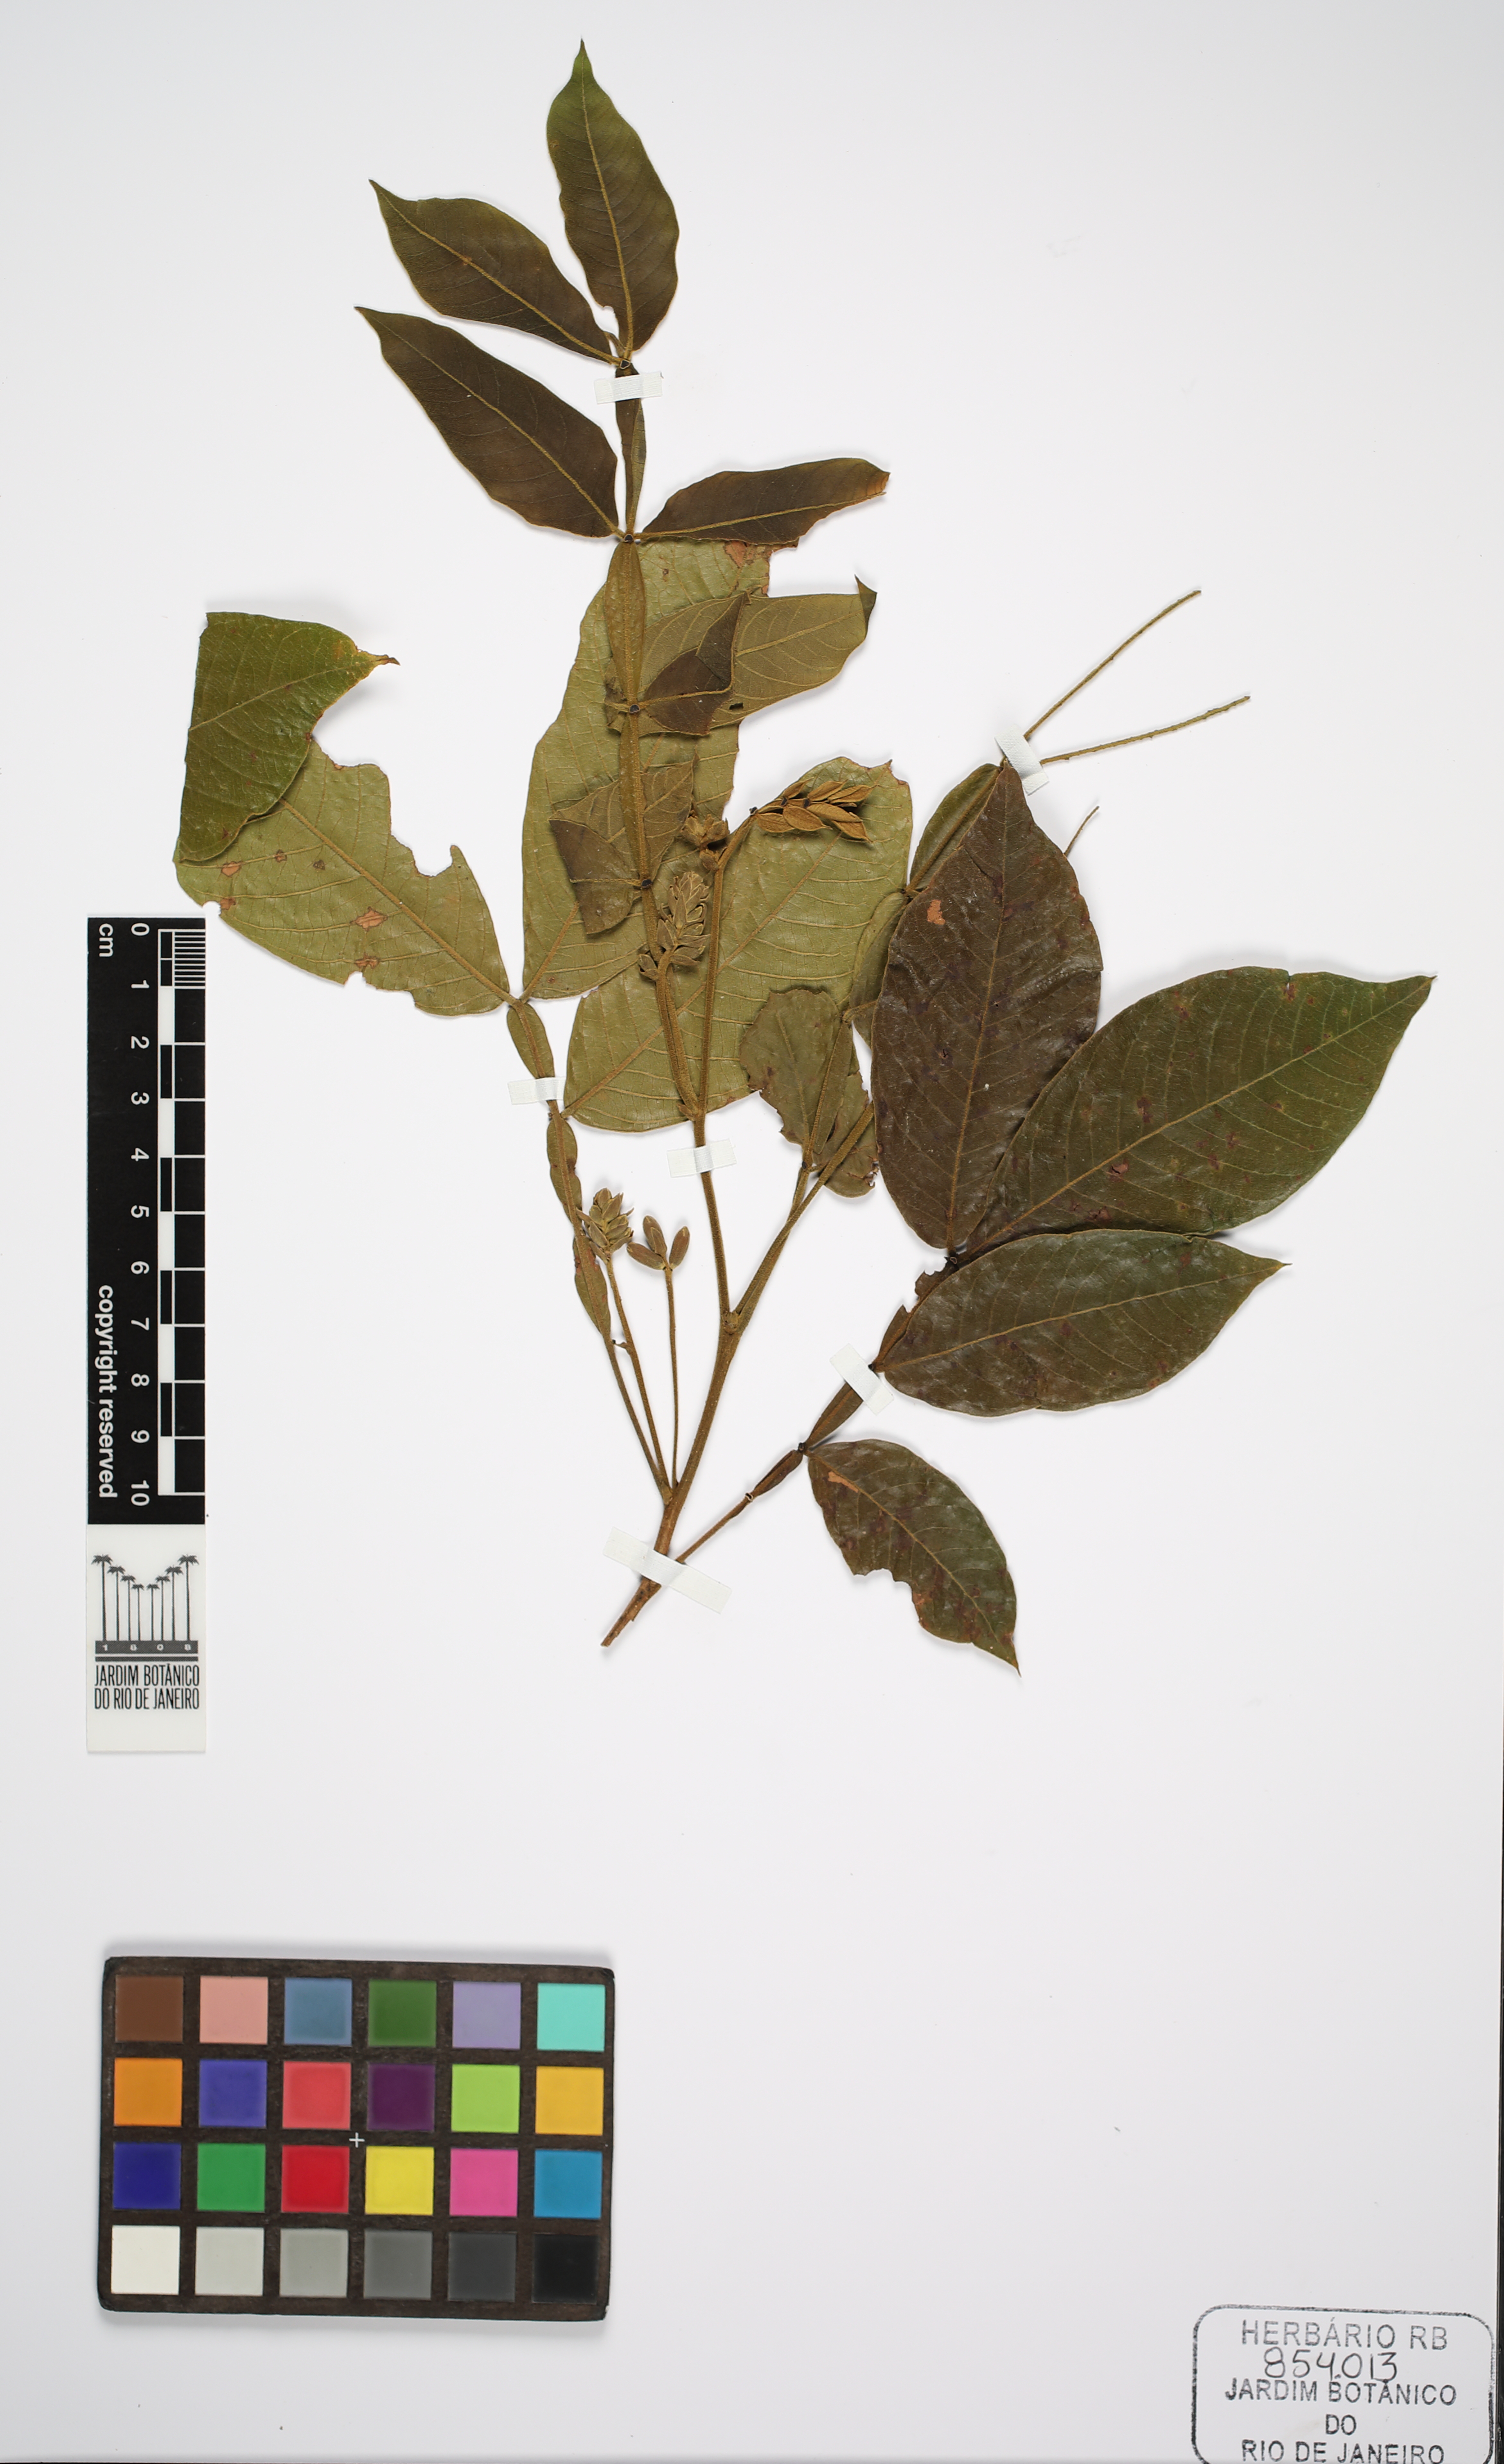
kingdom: Plantae
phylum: Tracheophyta
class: Magnoliopsida
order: Fabales
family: Fabaceae
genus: Inga
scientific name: Inga edulis
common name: Ice cream bean
